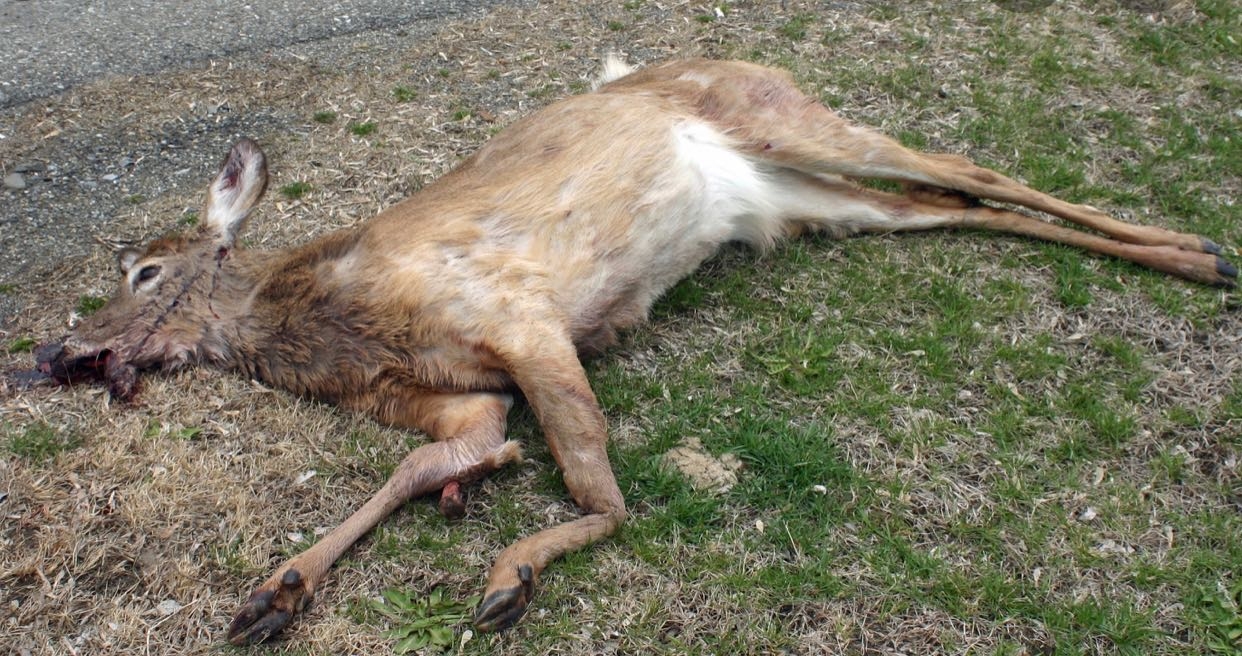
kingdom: Animalia
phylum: Chordata
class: Mammalia
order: Artiodactyla
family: Cervidae
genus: Odocoileus
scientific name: Odocoileus virginianus
